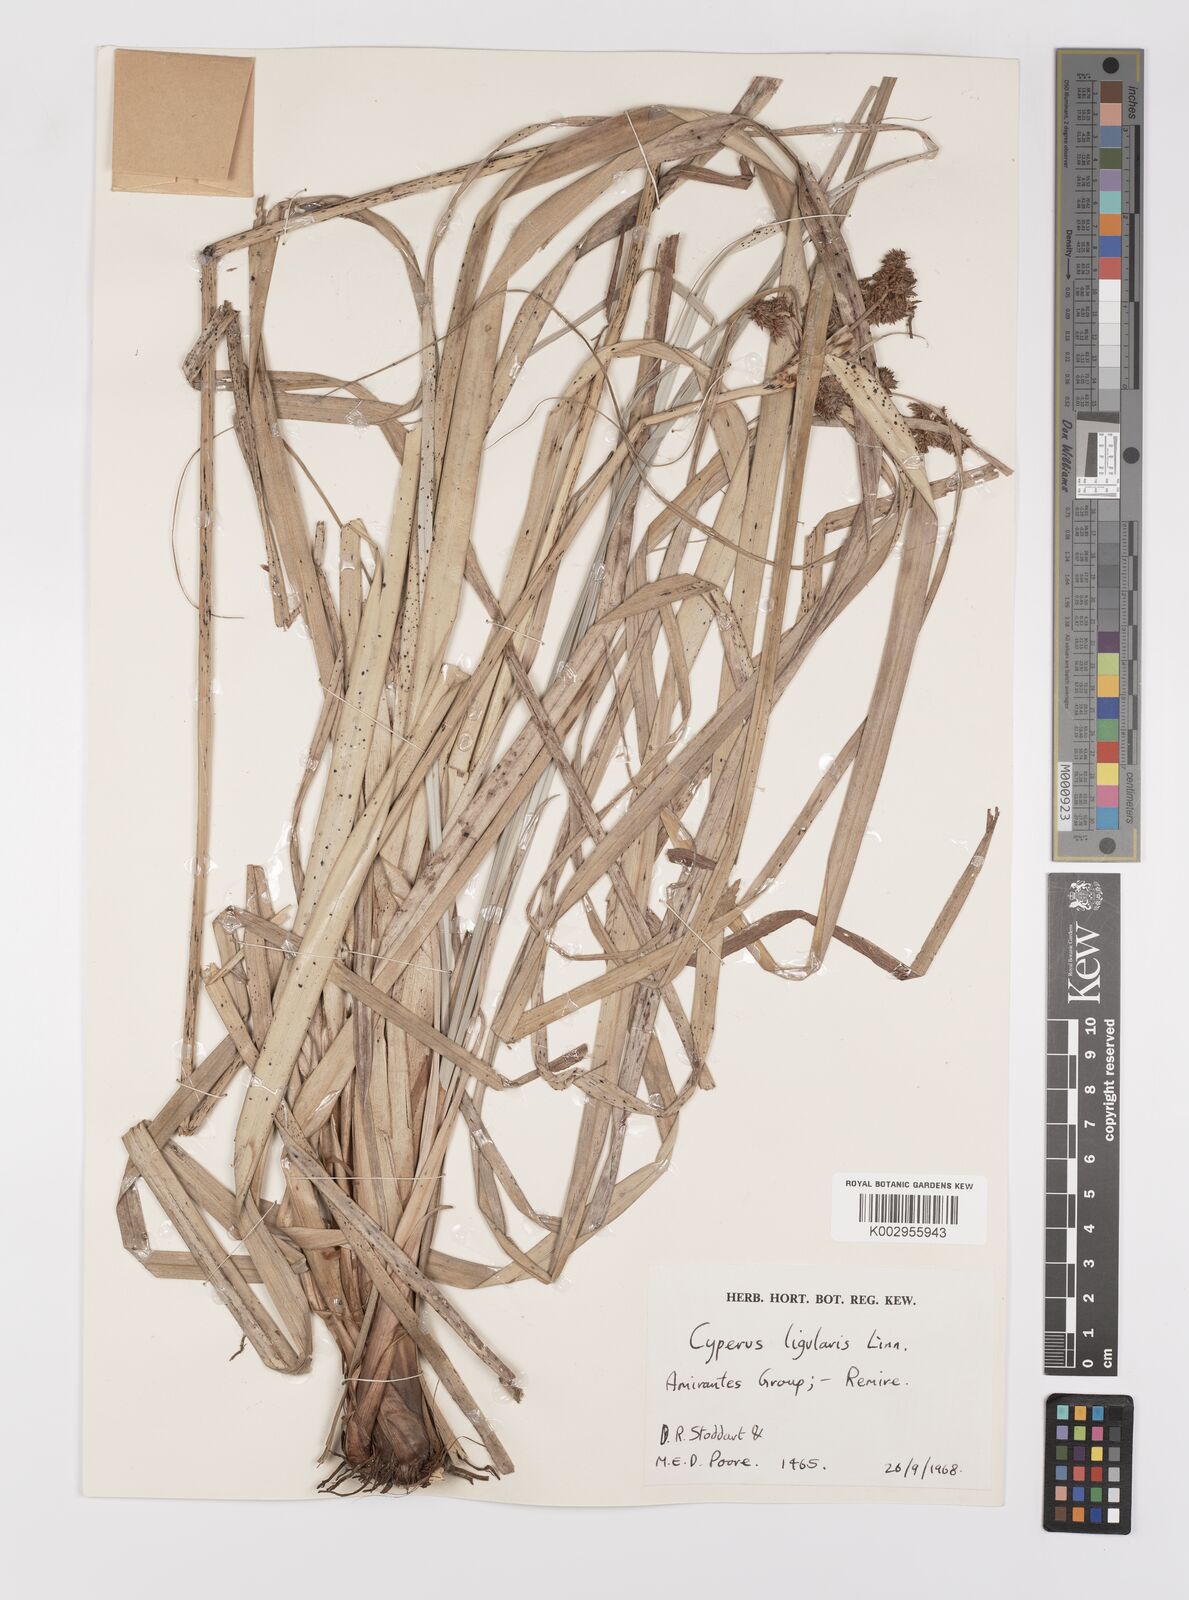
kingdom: Plantae
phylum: Tracheophyta
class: Liliopsida
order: Poales
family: Cyperaceae
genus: Cyperus
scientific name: Cyperus ligularis
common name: Swamp flat sedge
